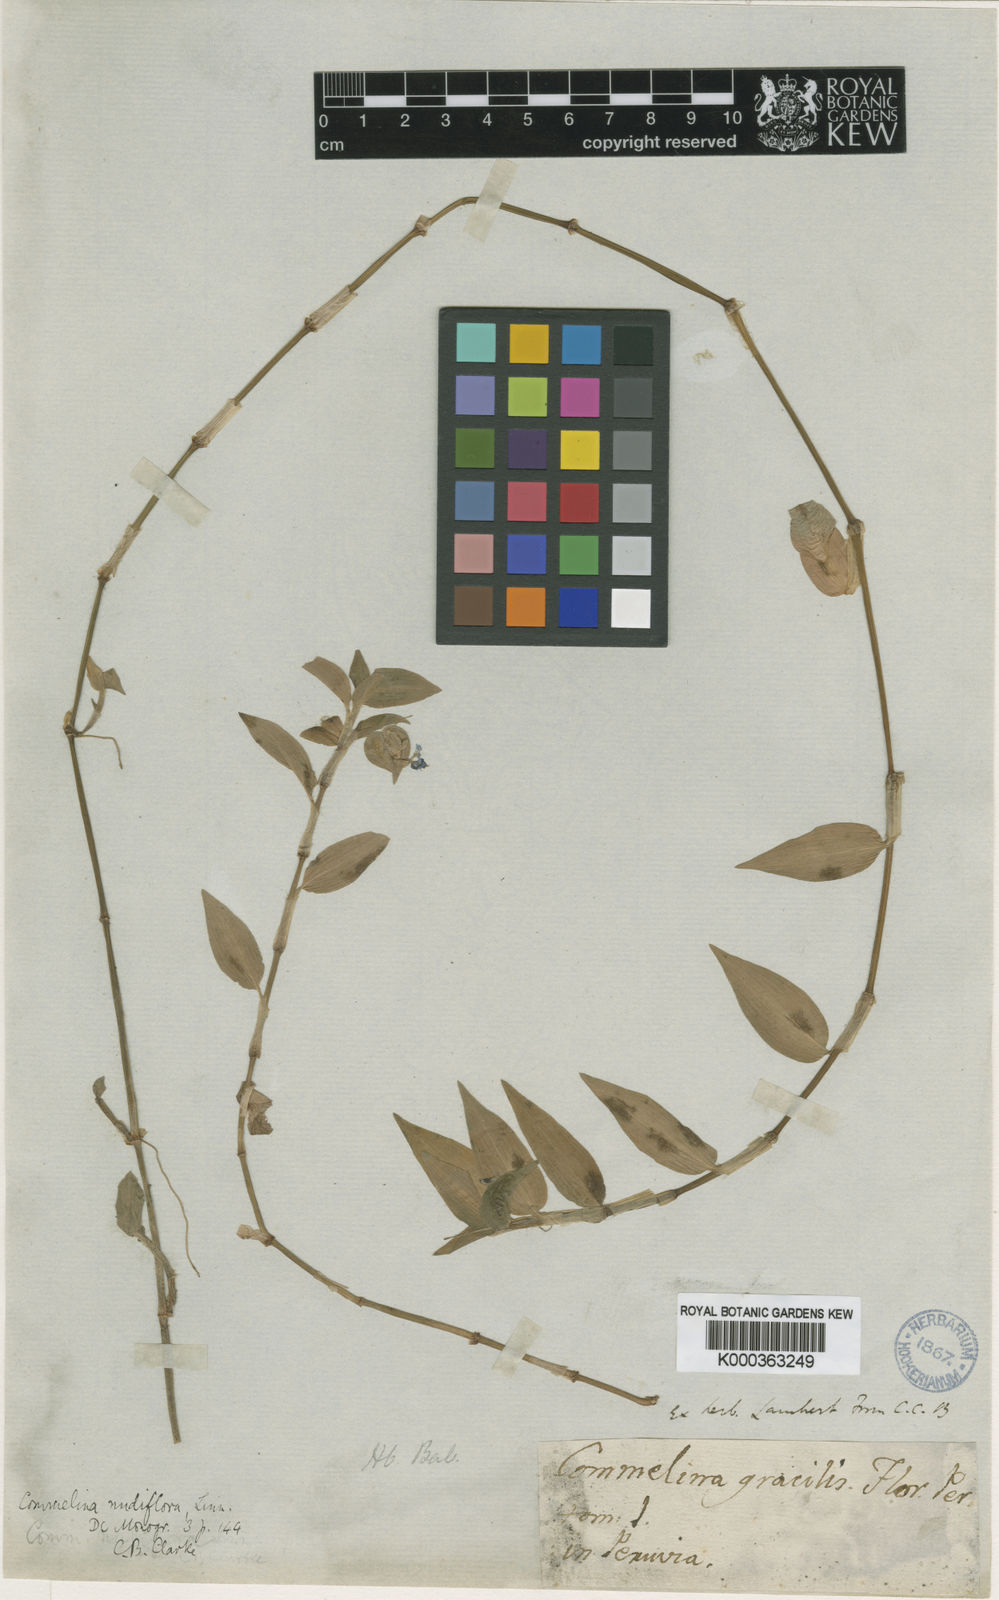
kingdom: Plantae
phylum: Tracheophyta
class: Liliopsida
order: Commelinales
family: Commelinaceae
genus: Commelina
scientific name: Commelina diffusa
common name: Climbing dayflower
